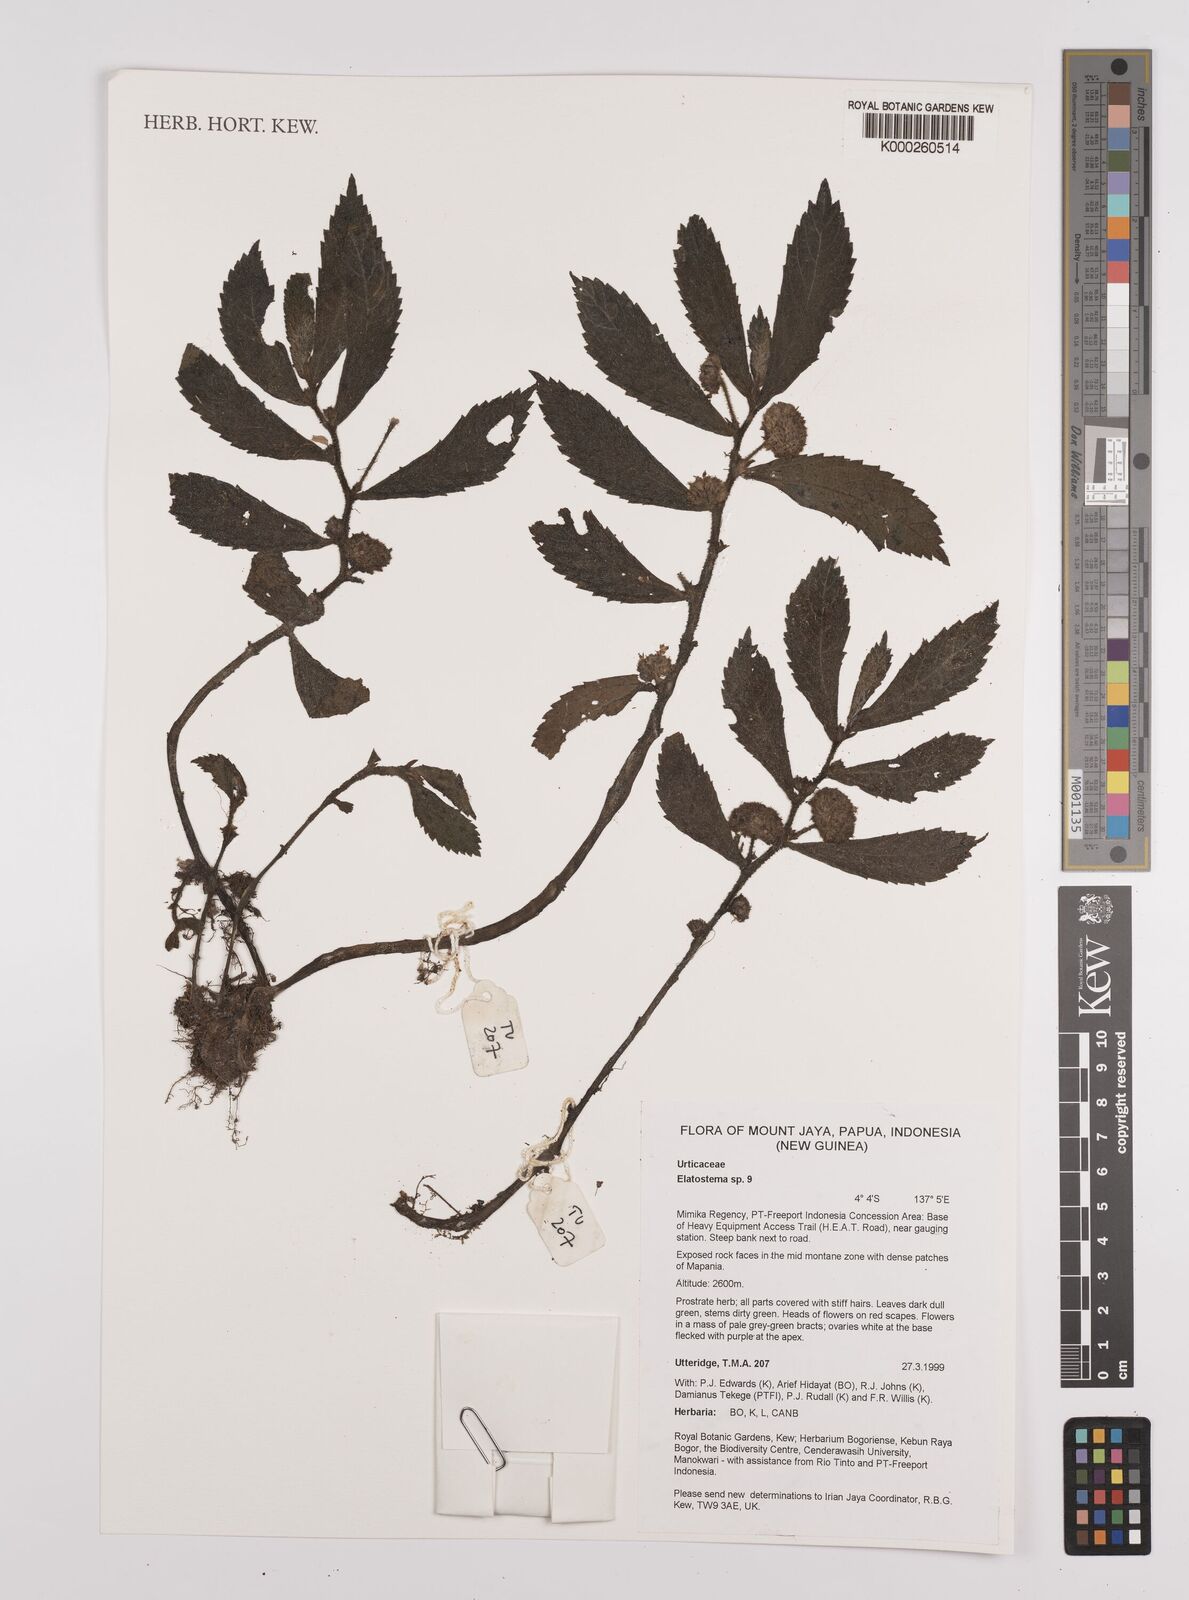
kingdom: Plantae
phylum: Tracheophyta
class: Magnoliopsida
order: Rosales
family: Urticaceae
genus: Elatostema
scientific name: Elatostema
